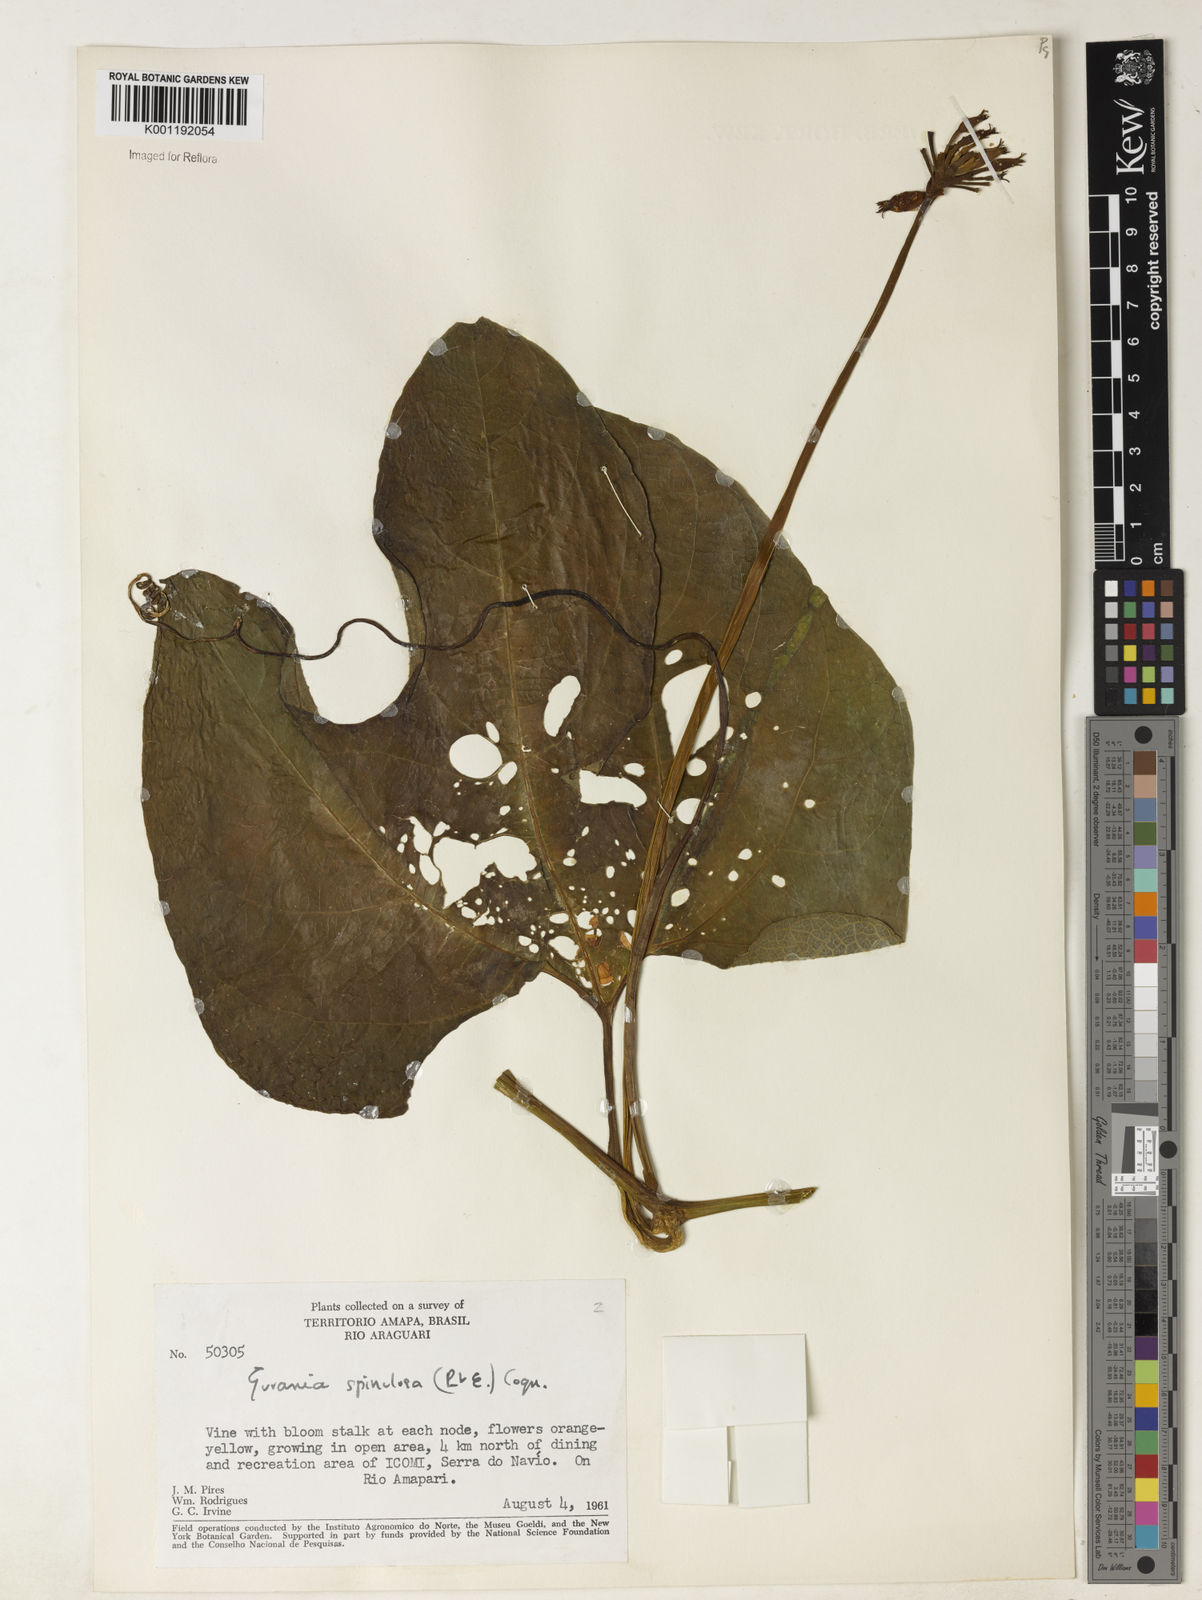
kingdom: Plantae
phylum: Tracheophyta
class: Magnoliopsida
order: Cucurbitales
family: Cucurbitaceae
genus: Gurania
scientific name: Gurania lobata
